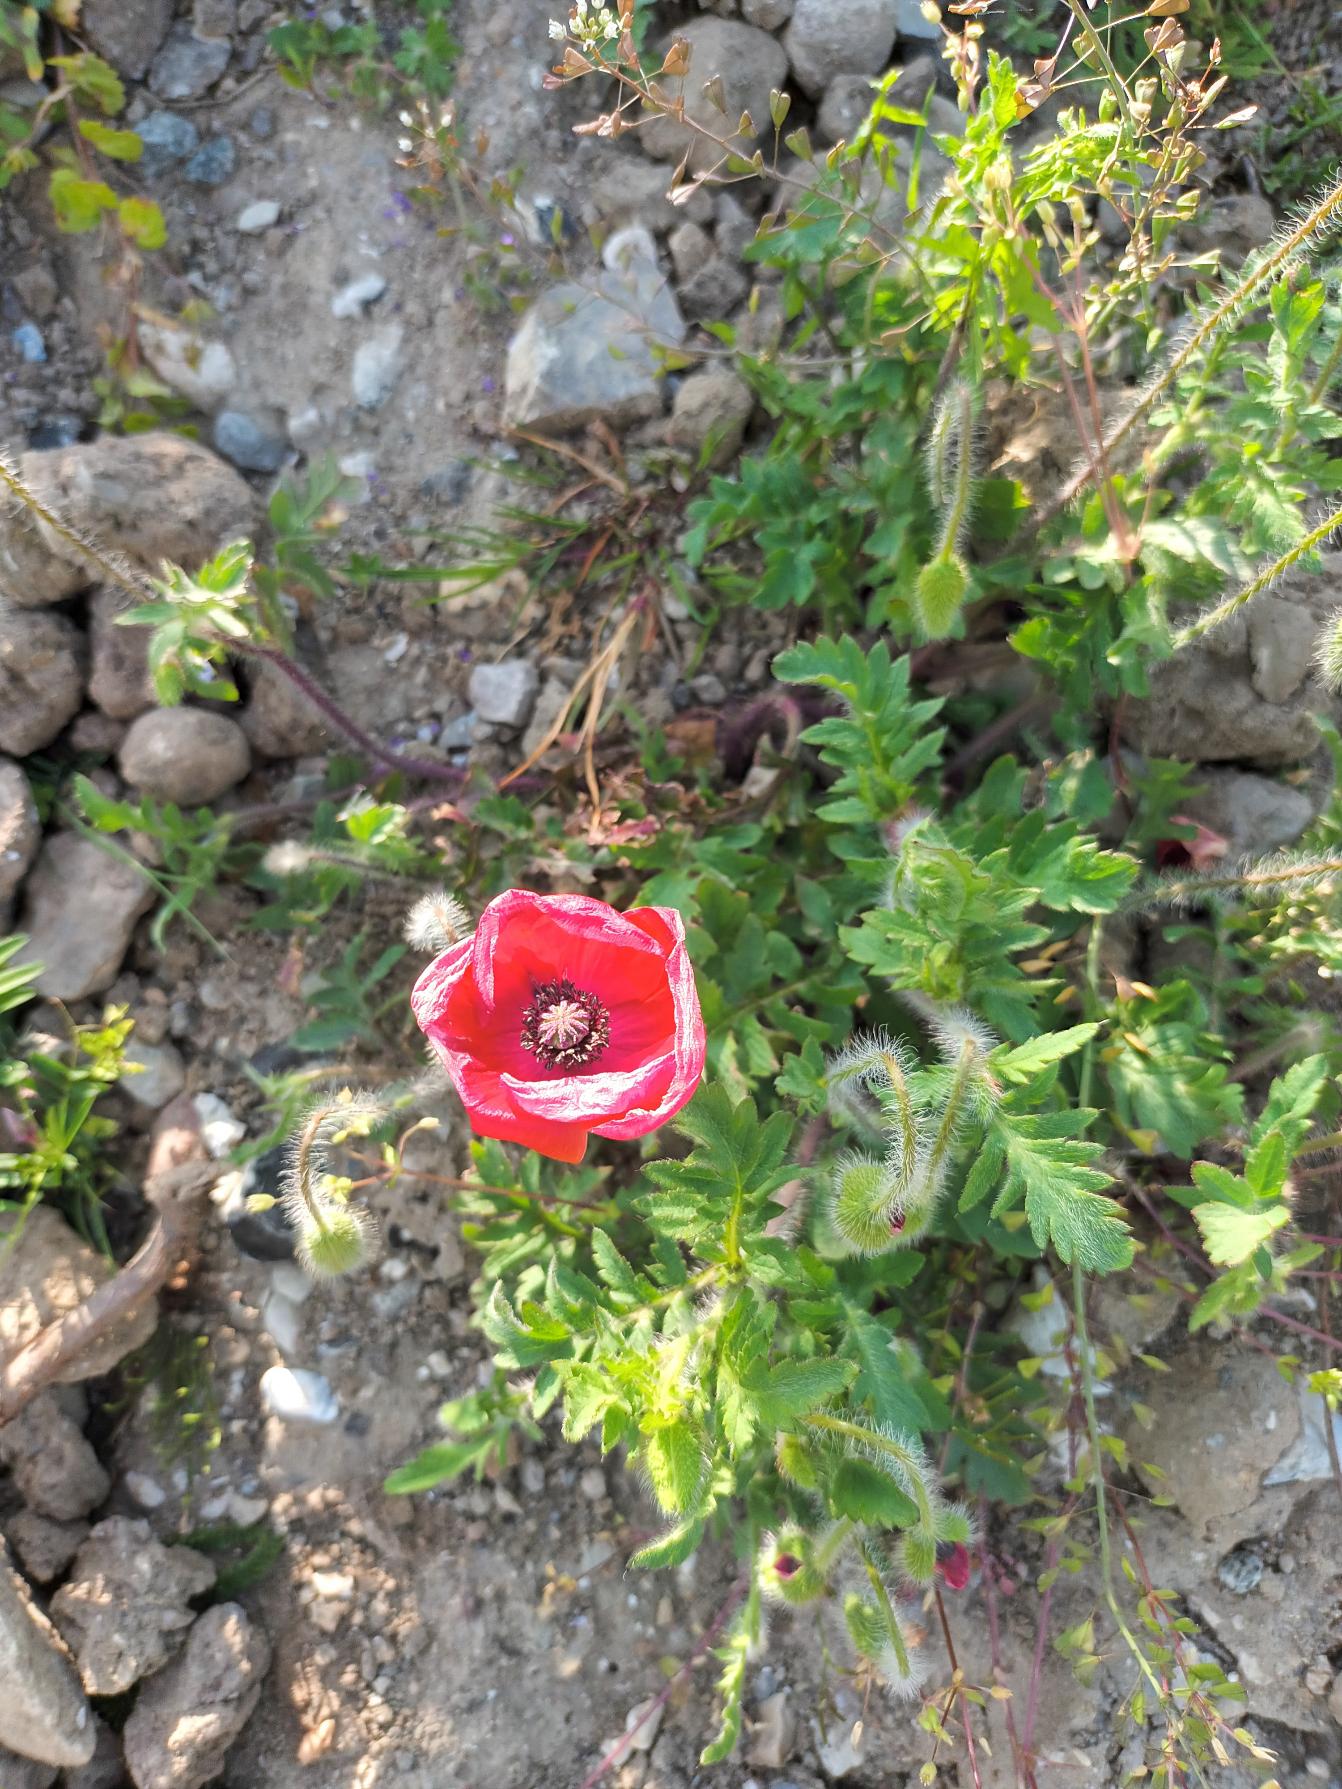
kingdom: Plantae
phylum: Tracheophyta
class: Magnoliopsida
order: Ranunculales
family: Papaveraceae
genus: Papaver
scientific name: Papaver rhoeas
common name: Korn-valmue
